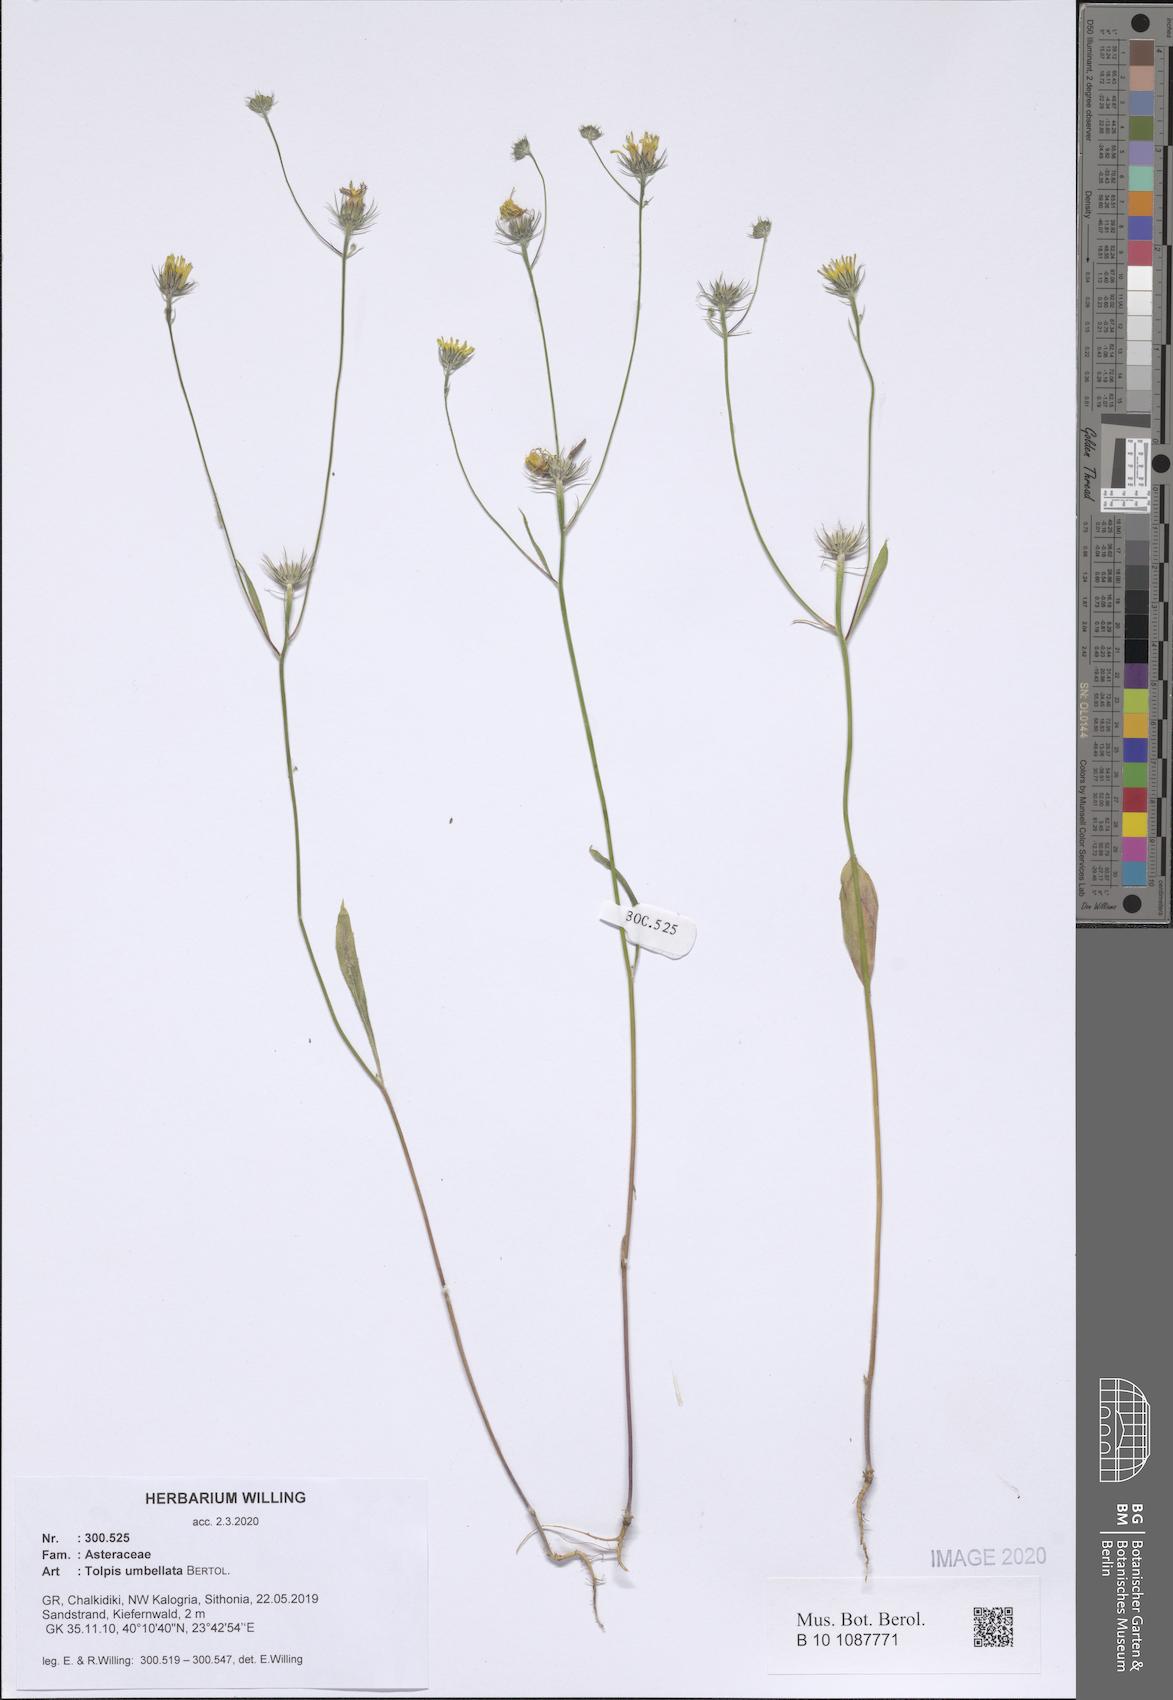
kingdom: Plantae
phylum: Tracheophyta
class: Magnoliopsida
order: Asterales
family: Asteraceae
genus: Tolpis
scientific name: Tolpis umbellata
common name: Yellow hawkweed
